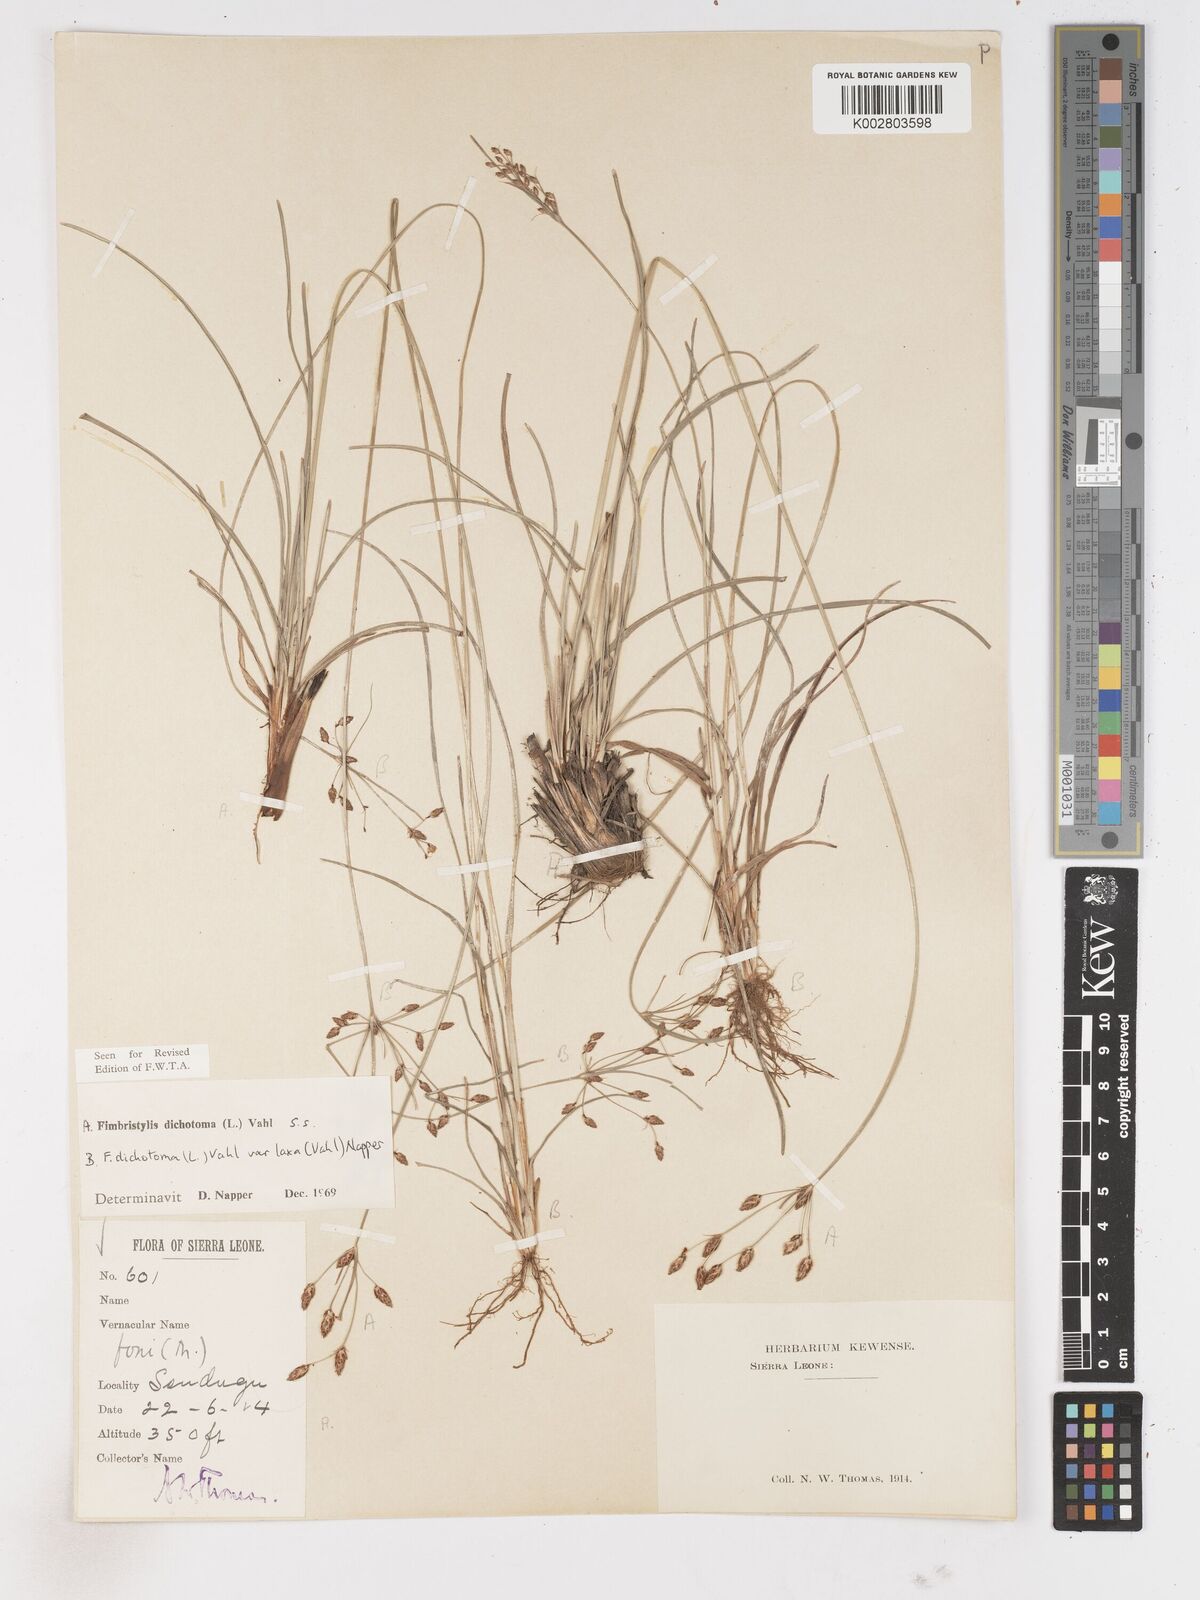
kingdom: Plantae
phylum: Tracheophyta
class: Liliopsida
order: Poales
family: Cyperaceae
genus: Fimbristylis
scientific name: Fimbristylis dichotoma
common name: Forked fimbry
